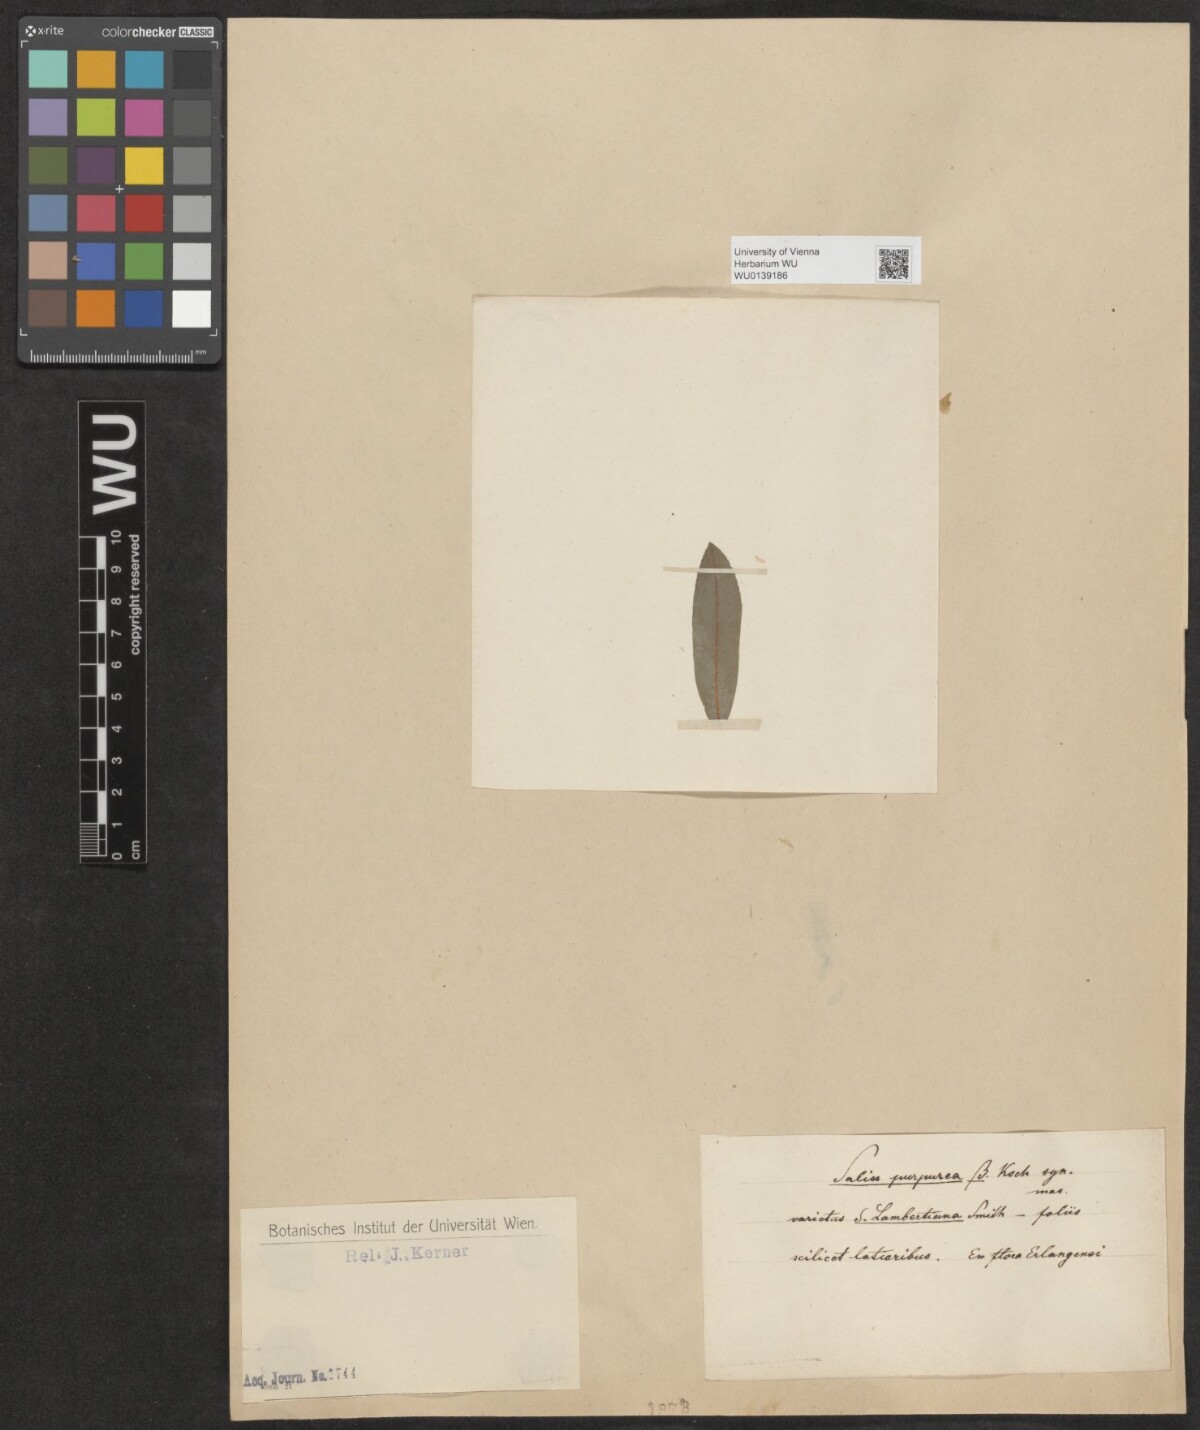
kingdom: Plantae
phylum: Tracheophyta
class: Magnoliopsida
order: Malpighiales
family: Salicaceae
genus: Salix
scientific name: Salix purpurea
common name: Purple willow
